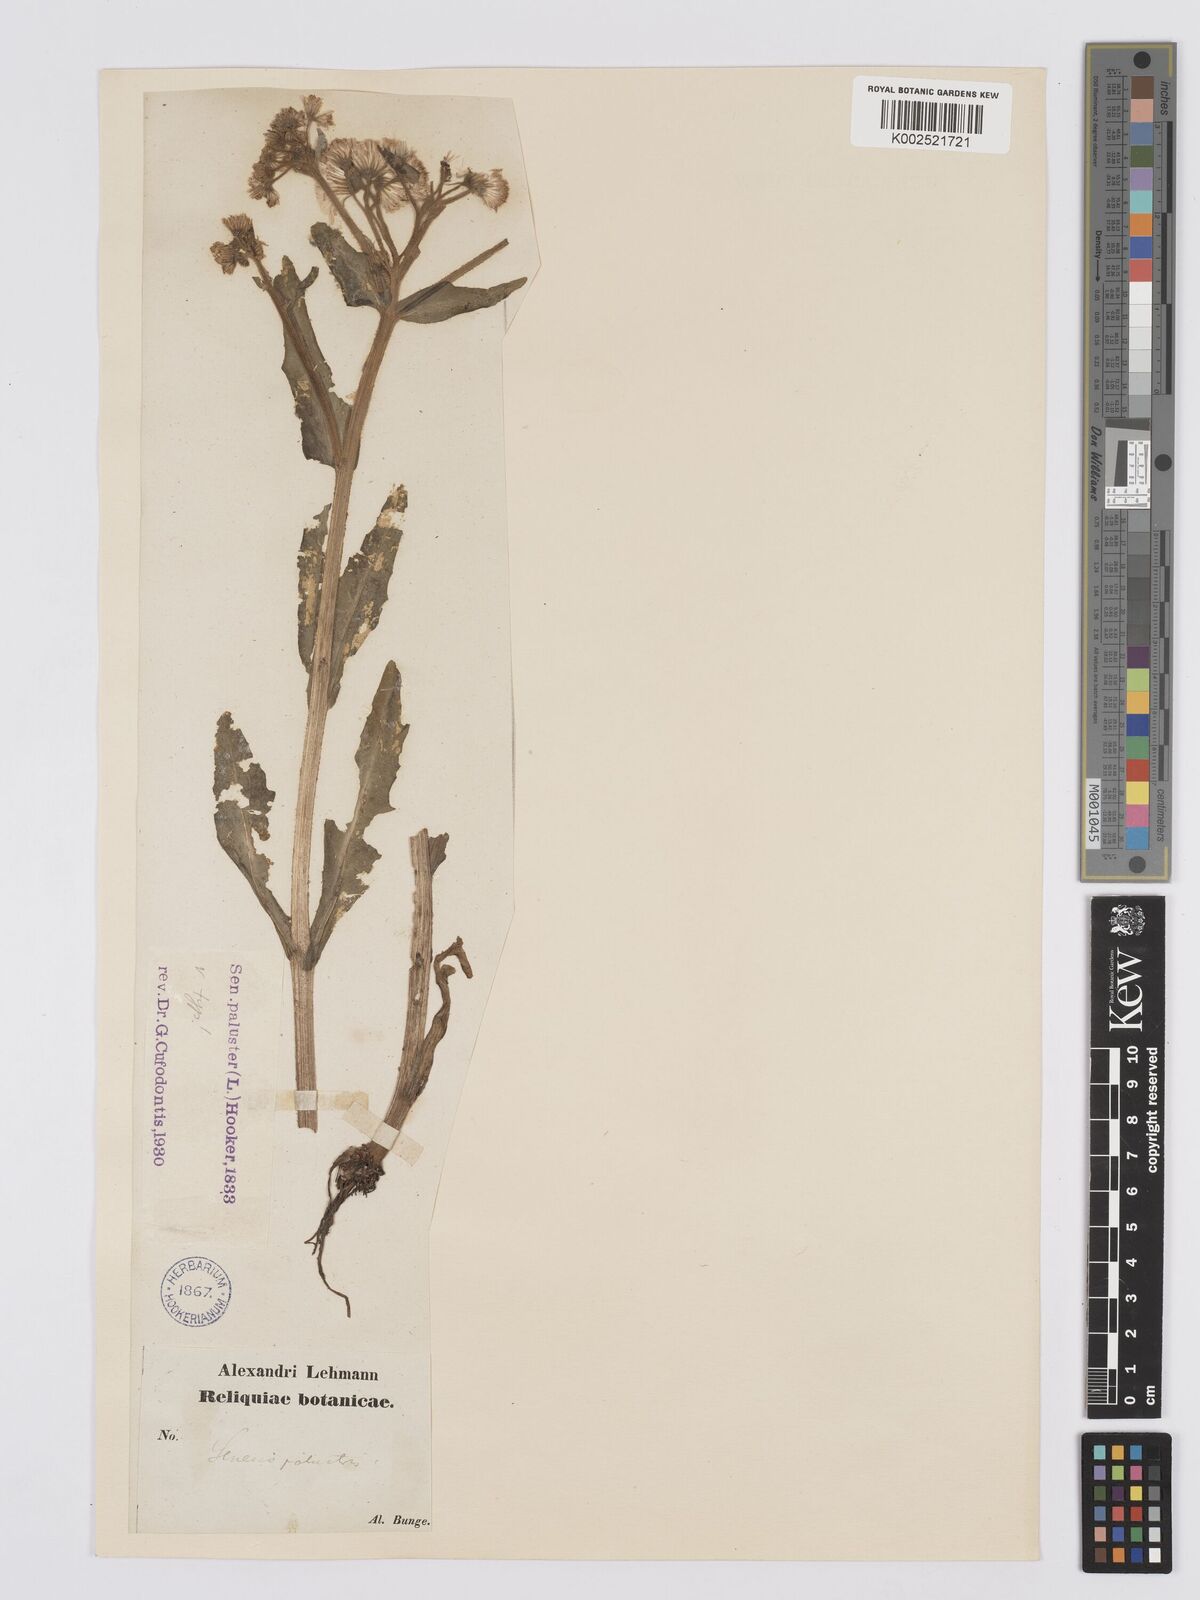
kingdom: Plantae
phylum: Tracheophyta
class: Magnoliopsida
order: Asterales
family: Asteraceae
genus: Tephroseris
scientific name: Tephroseris palustris
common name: Marsh fleawort
